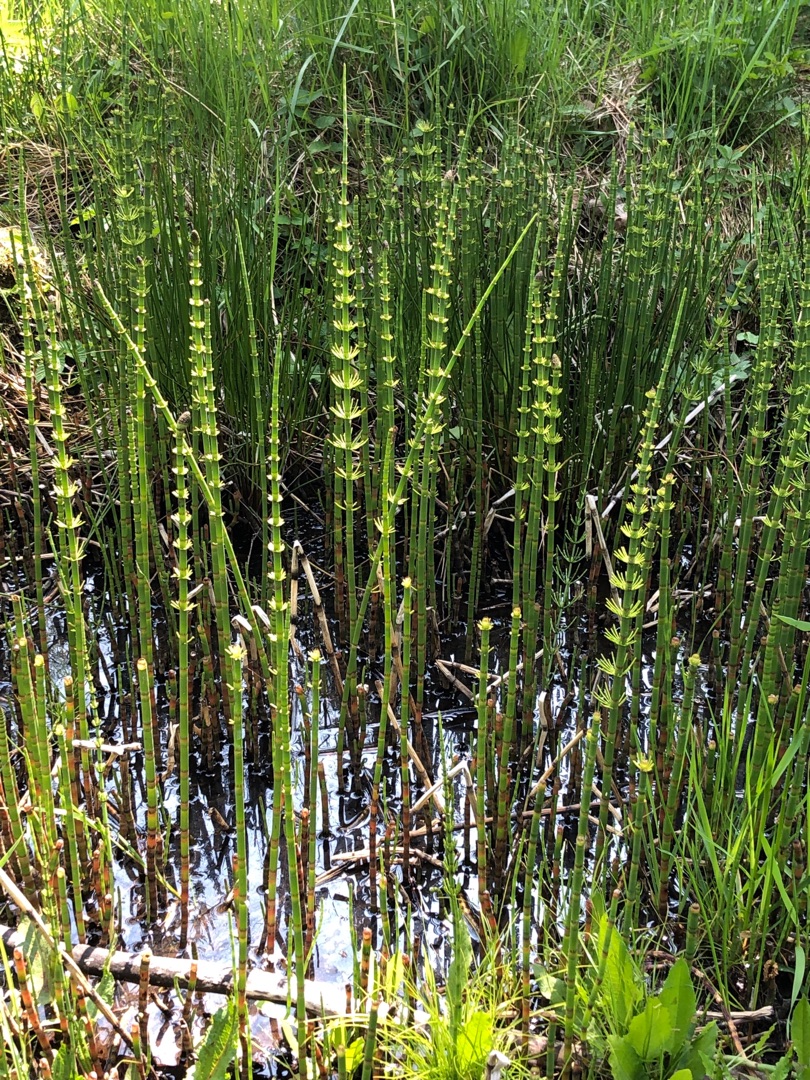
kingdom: Plantae
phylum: Tracheophyta
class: Polypodiopsida
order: Equisetales
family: Equisetaceae
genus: Equisetum
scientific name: Equisetum fluviatile
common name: Dynd-padderok
